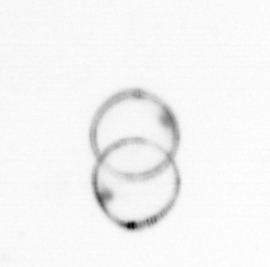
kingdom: Chromista
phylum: Ochrophyta
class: Bacillariophyceae
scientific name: Bacillariophyceae
